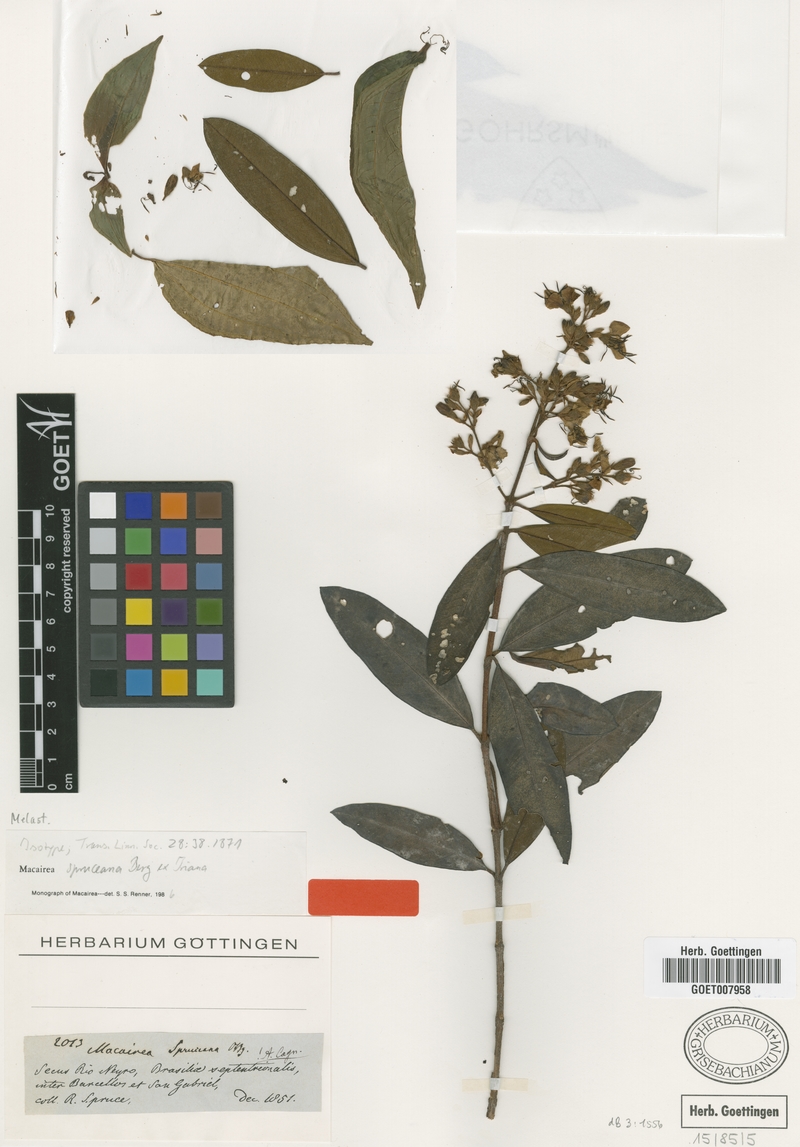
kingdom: Plantae
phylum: Tracheophyta
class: Magnoliopsida
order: Myrtales
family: Melastomataceae
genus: Macairea
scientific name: Macairea spruceana
